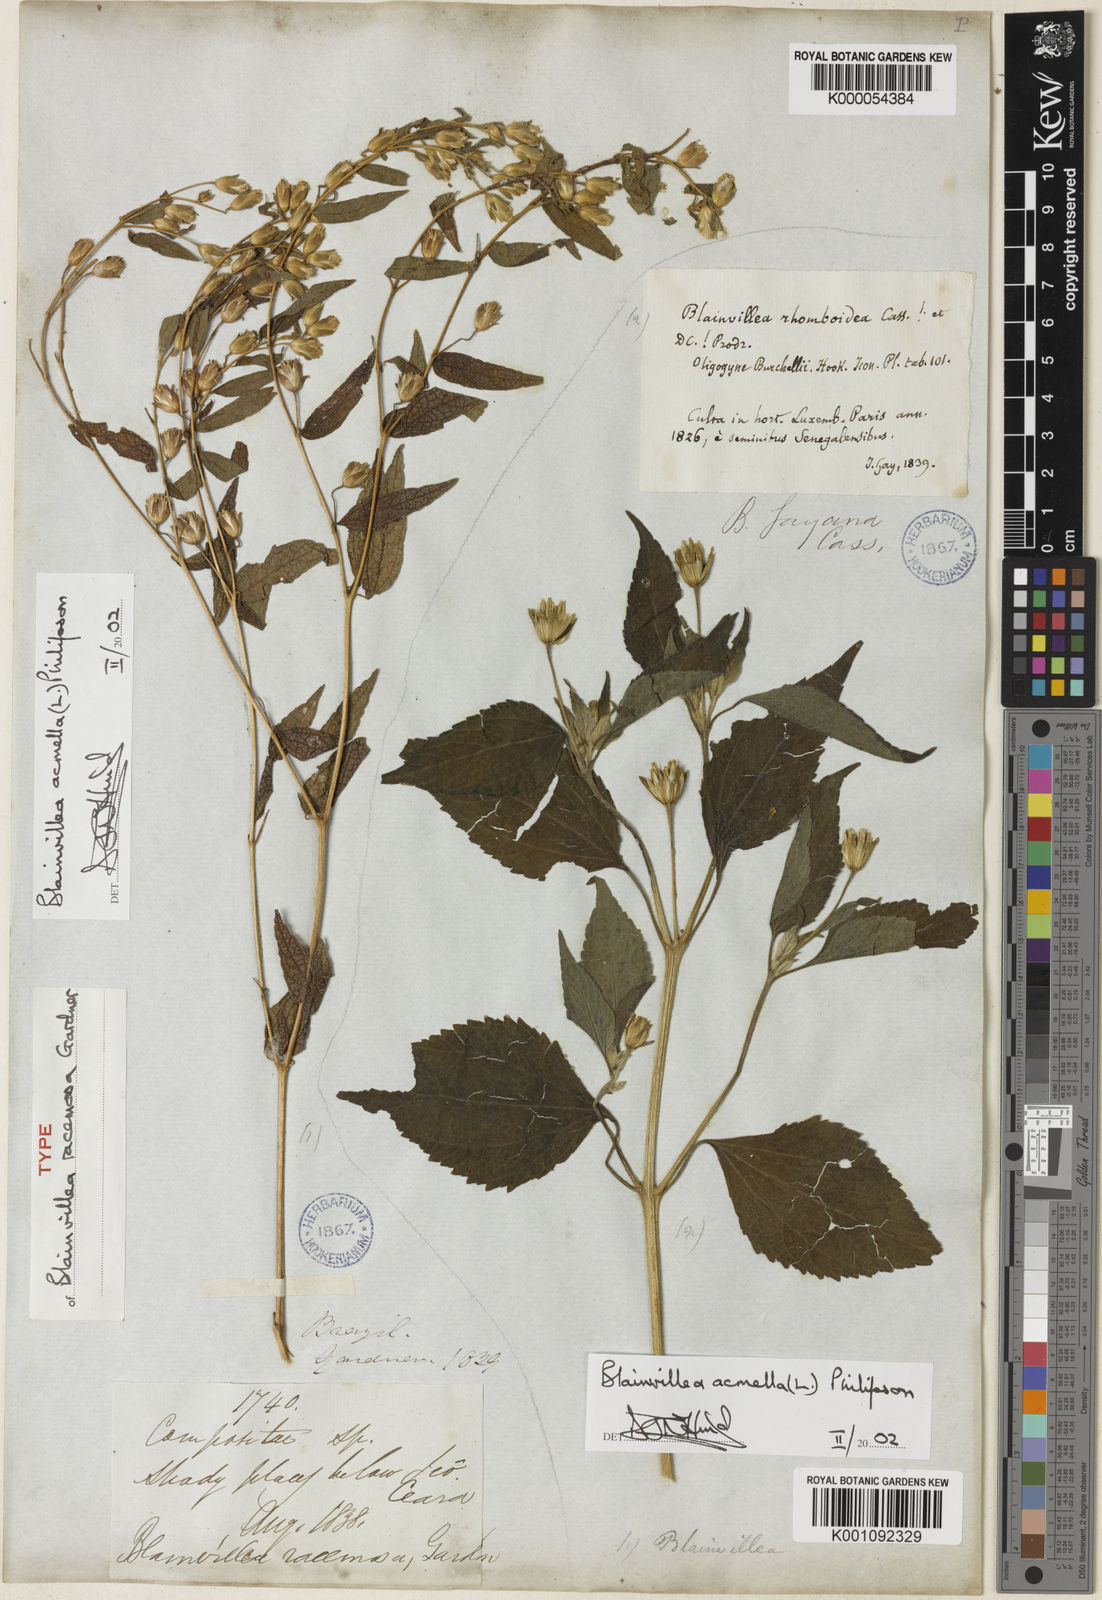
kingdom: Plantae
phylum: Tracheophyta
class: Magnoliopsida
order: Asterales
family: Asteraceae
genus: Blainvillea
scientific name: Blainvillea acmella
